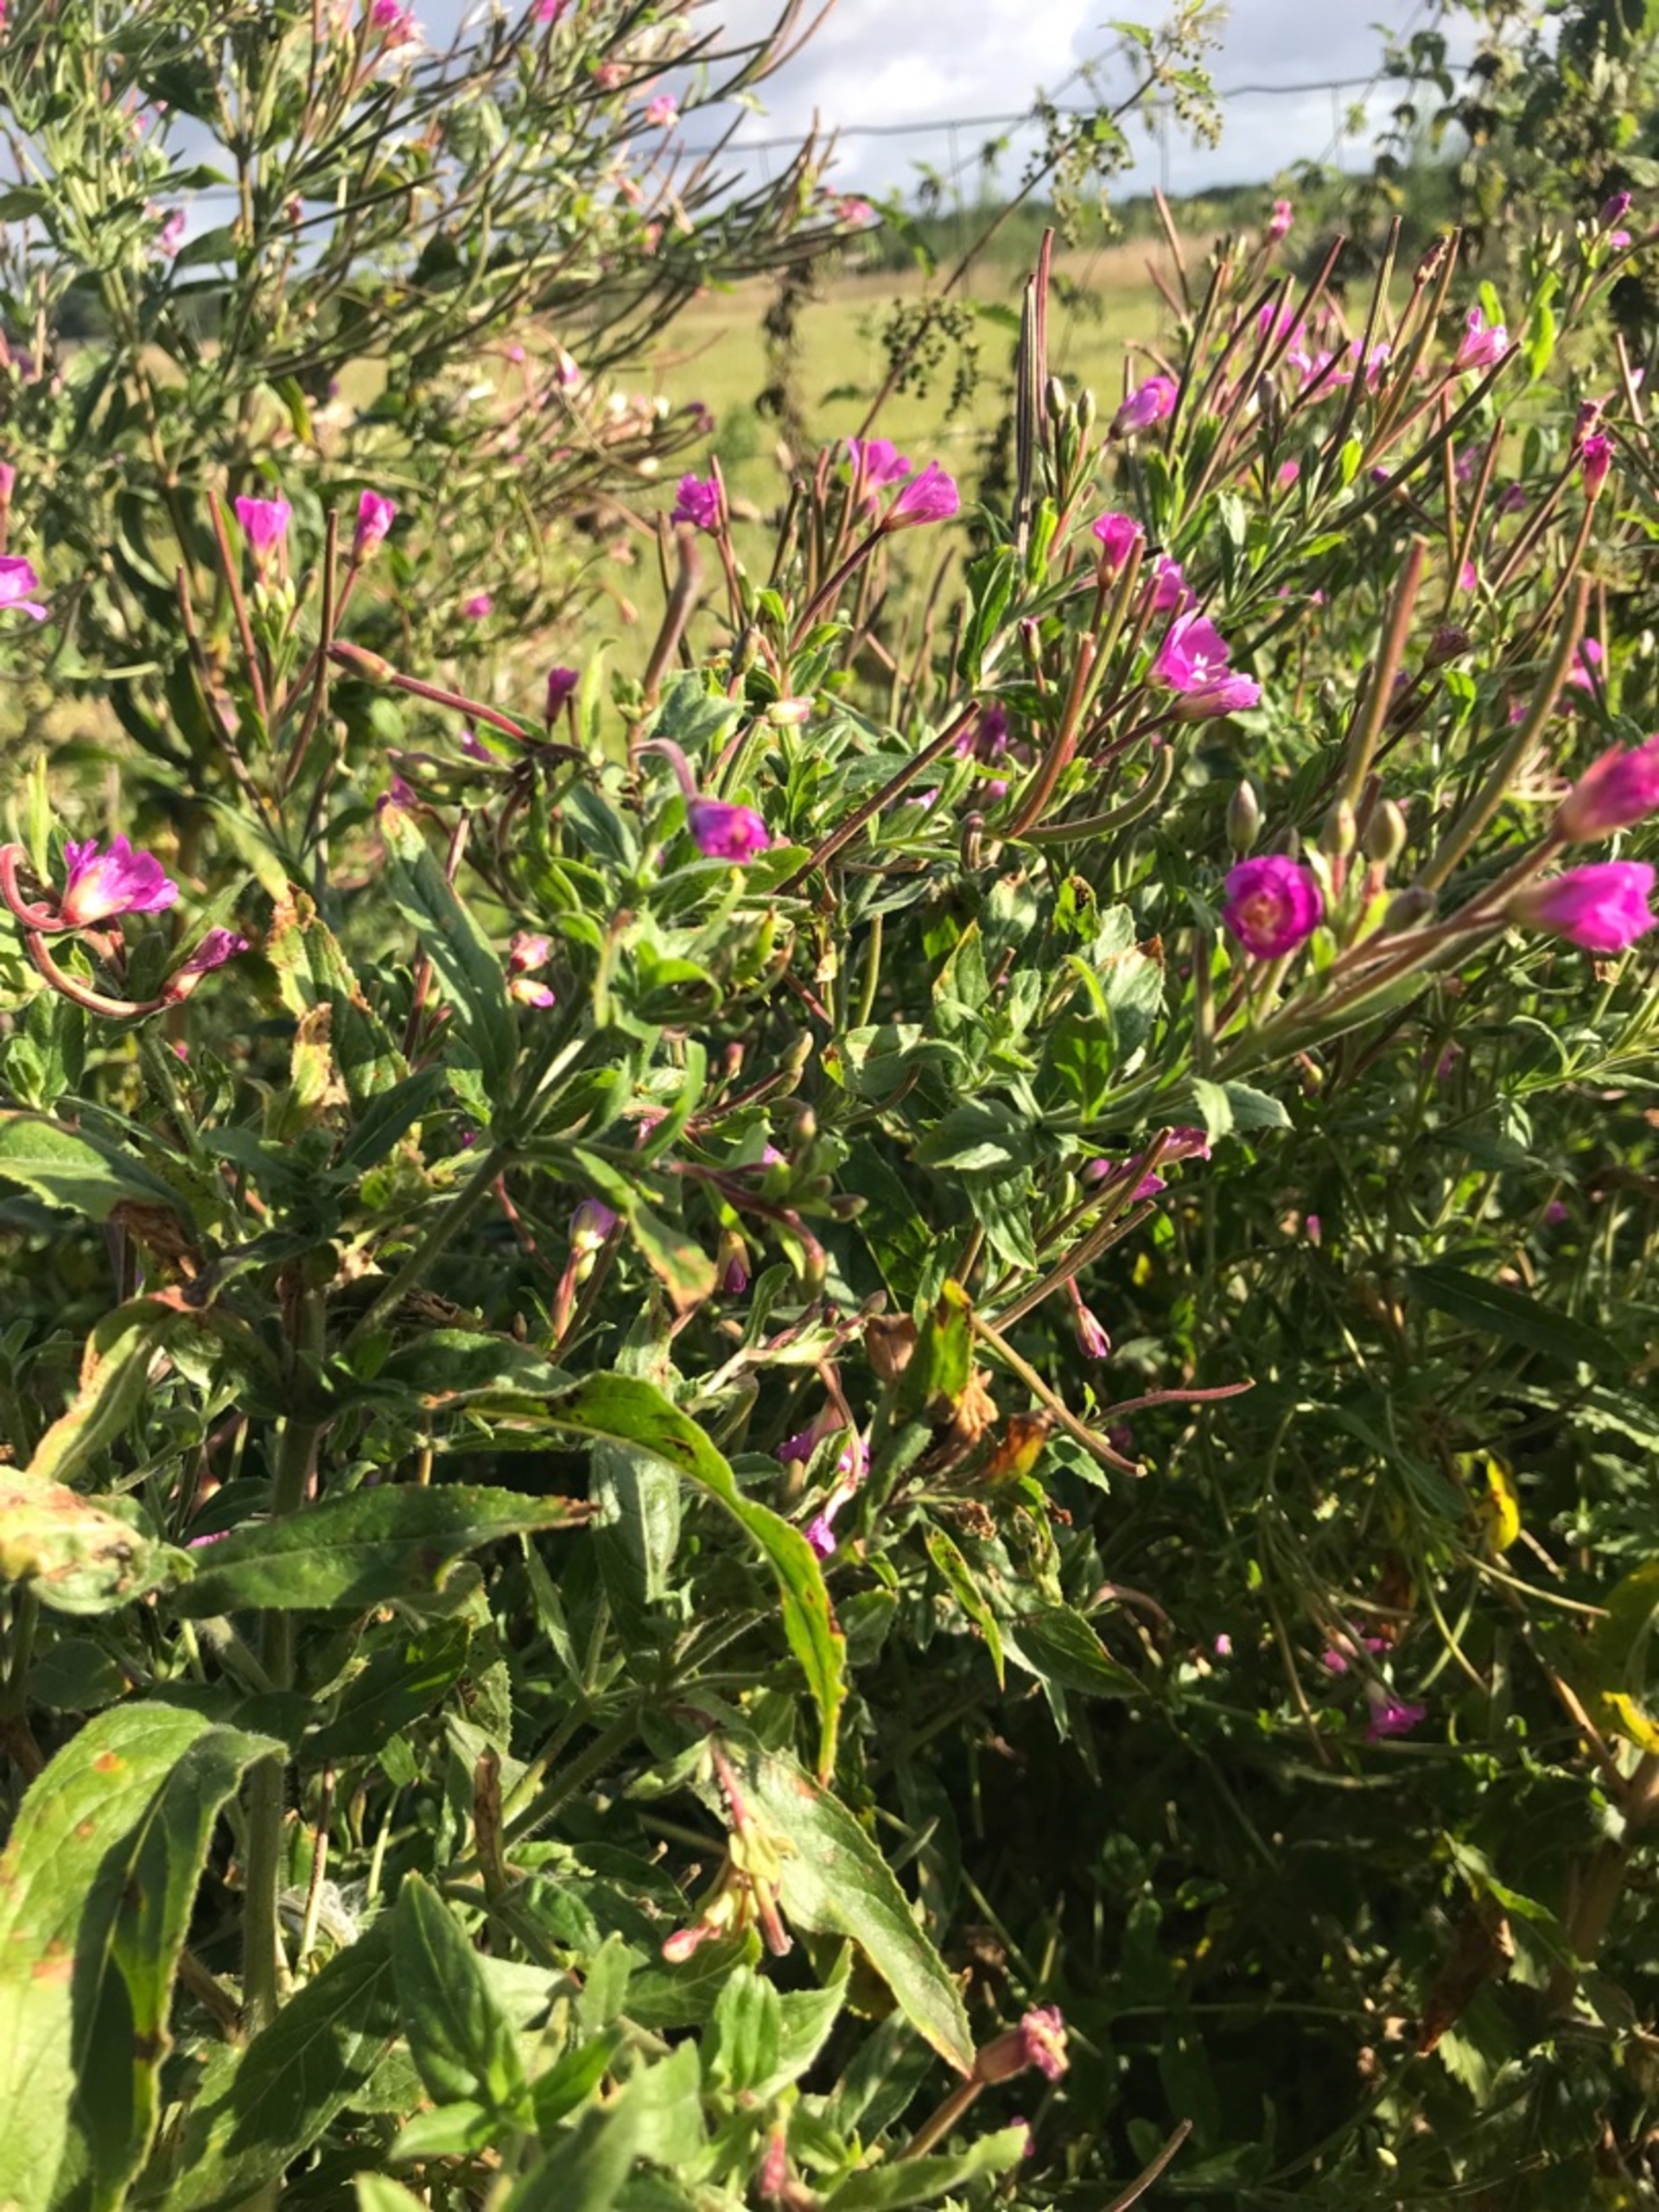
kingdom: Plantae
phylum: Tracheophyta
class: Magnoliopsida
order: Myrtales
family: Onagraceae
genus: Epilobium
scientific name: Epilobium hirsutum
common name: Lådden dueurt
